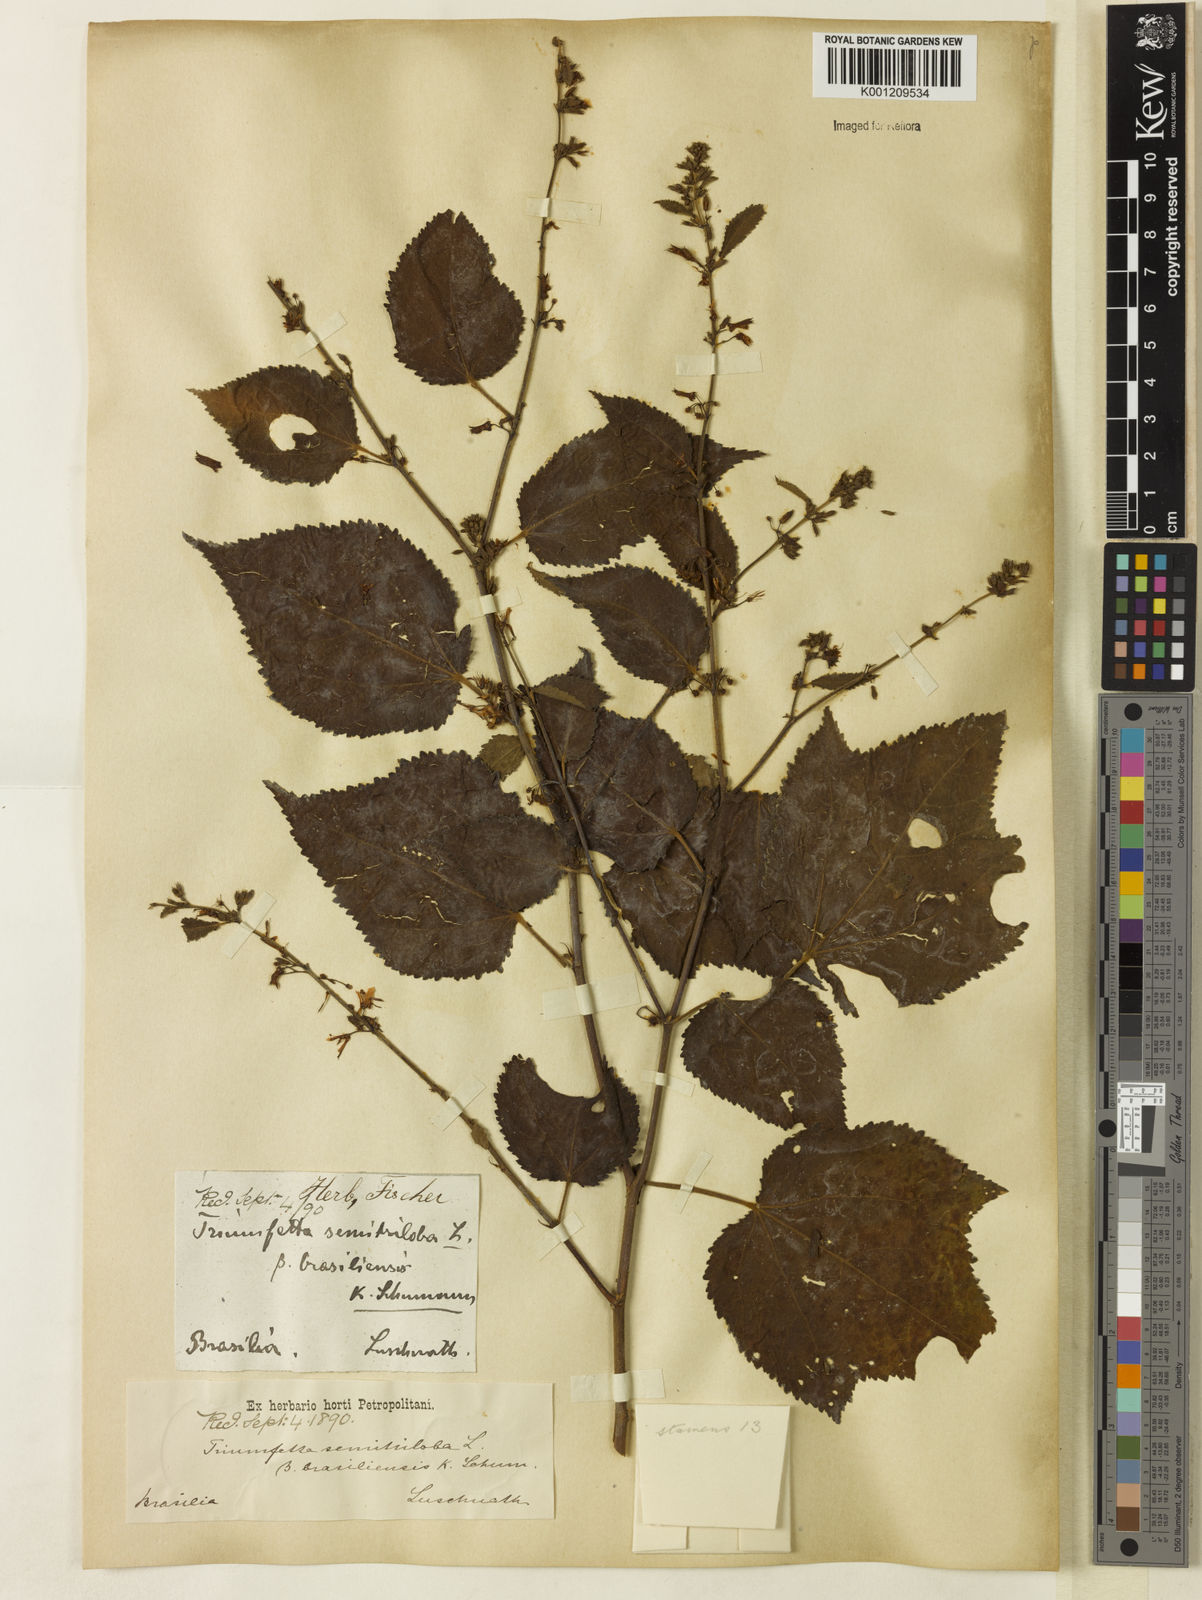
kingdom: Plantae
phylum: Tracheophyta
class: Magnoliopsida
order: Malvales
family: Malvaceae
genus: Triumfetta
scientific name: Triumfetta semitriloba
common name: Sacramento burbark
